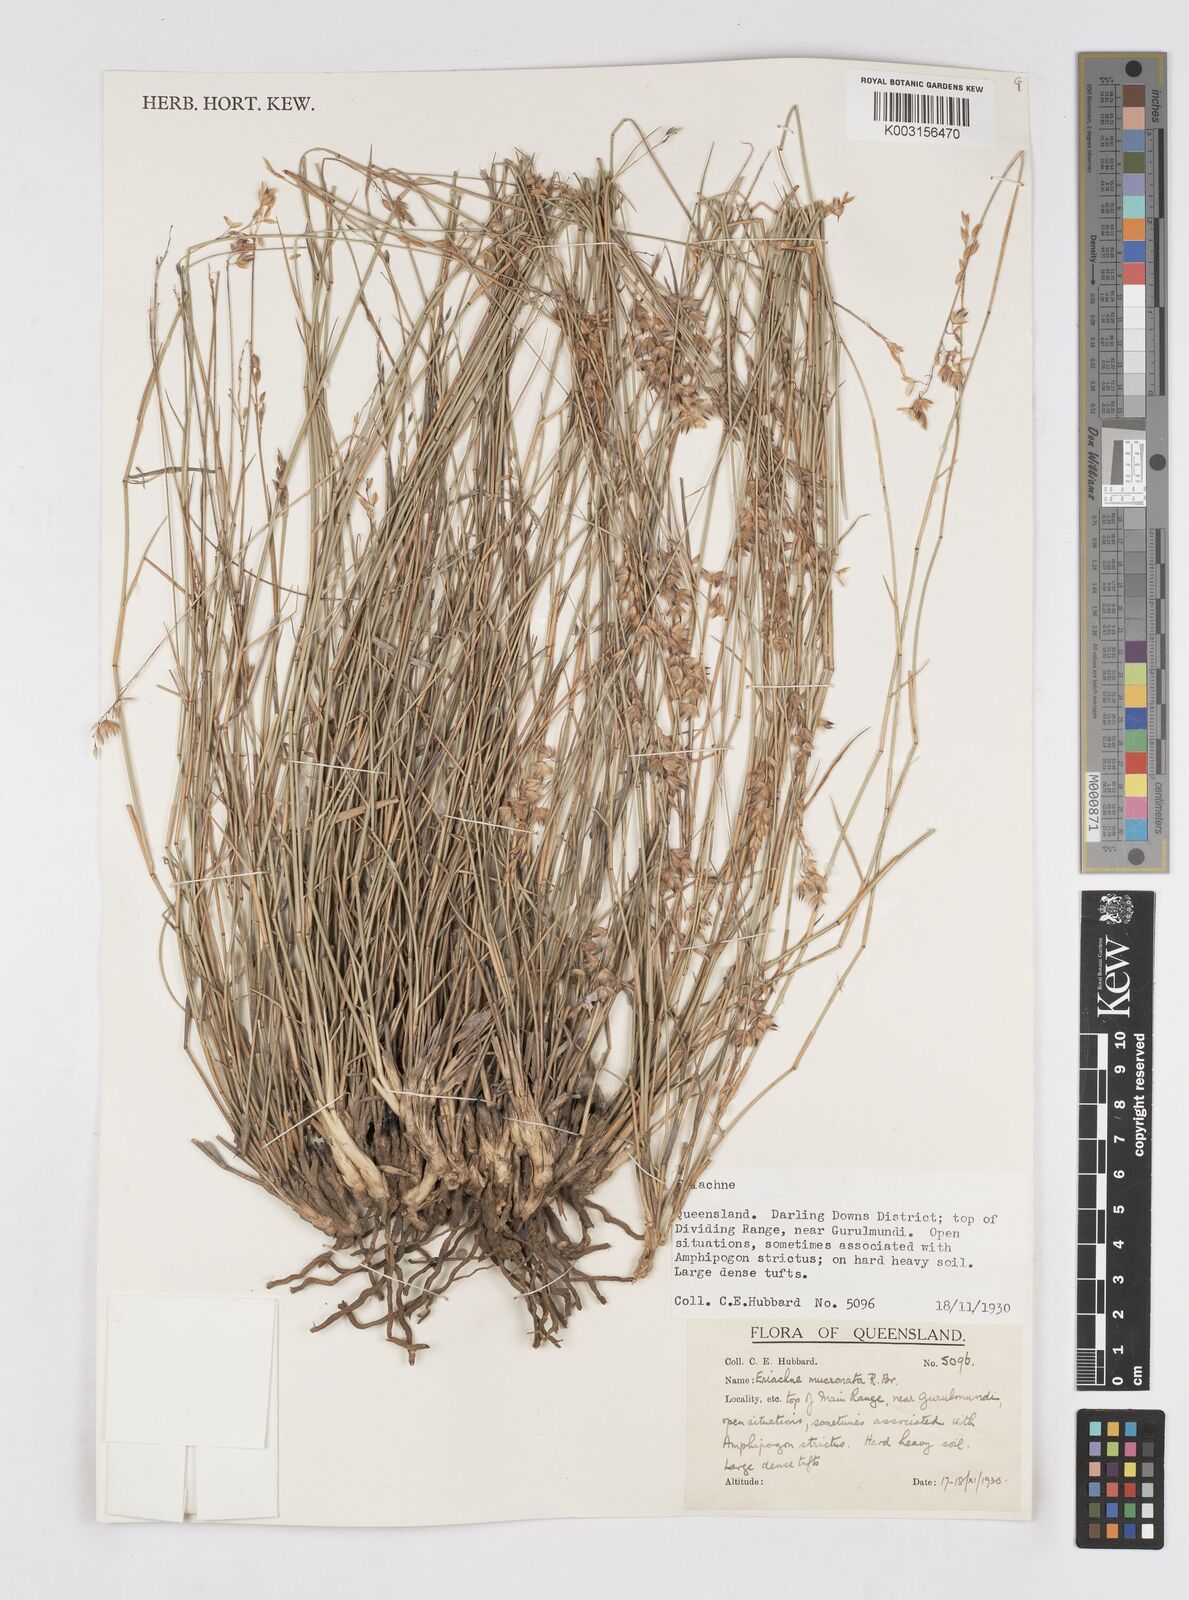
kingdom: Plantae
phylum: Tracheophyta
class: Liliopsida
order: Poales
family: Poaceae
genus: Eriachne
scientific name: Eriachne mucronata
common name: Mountain wanderrie grass
